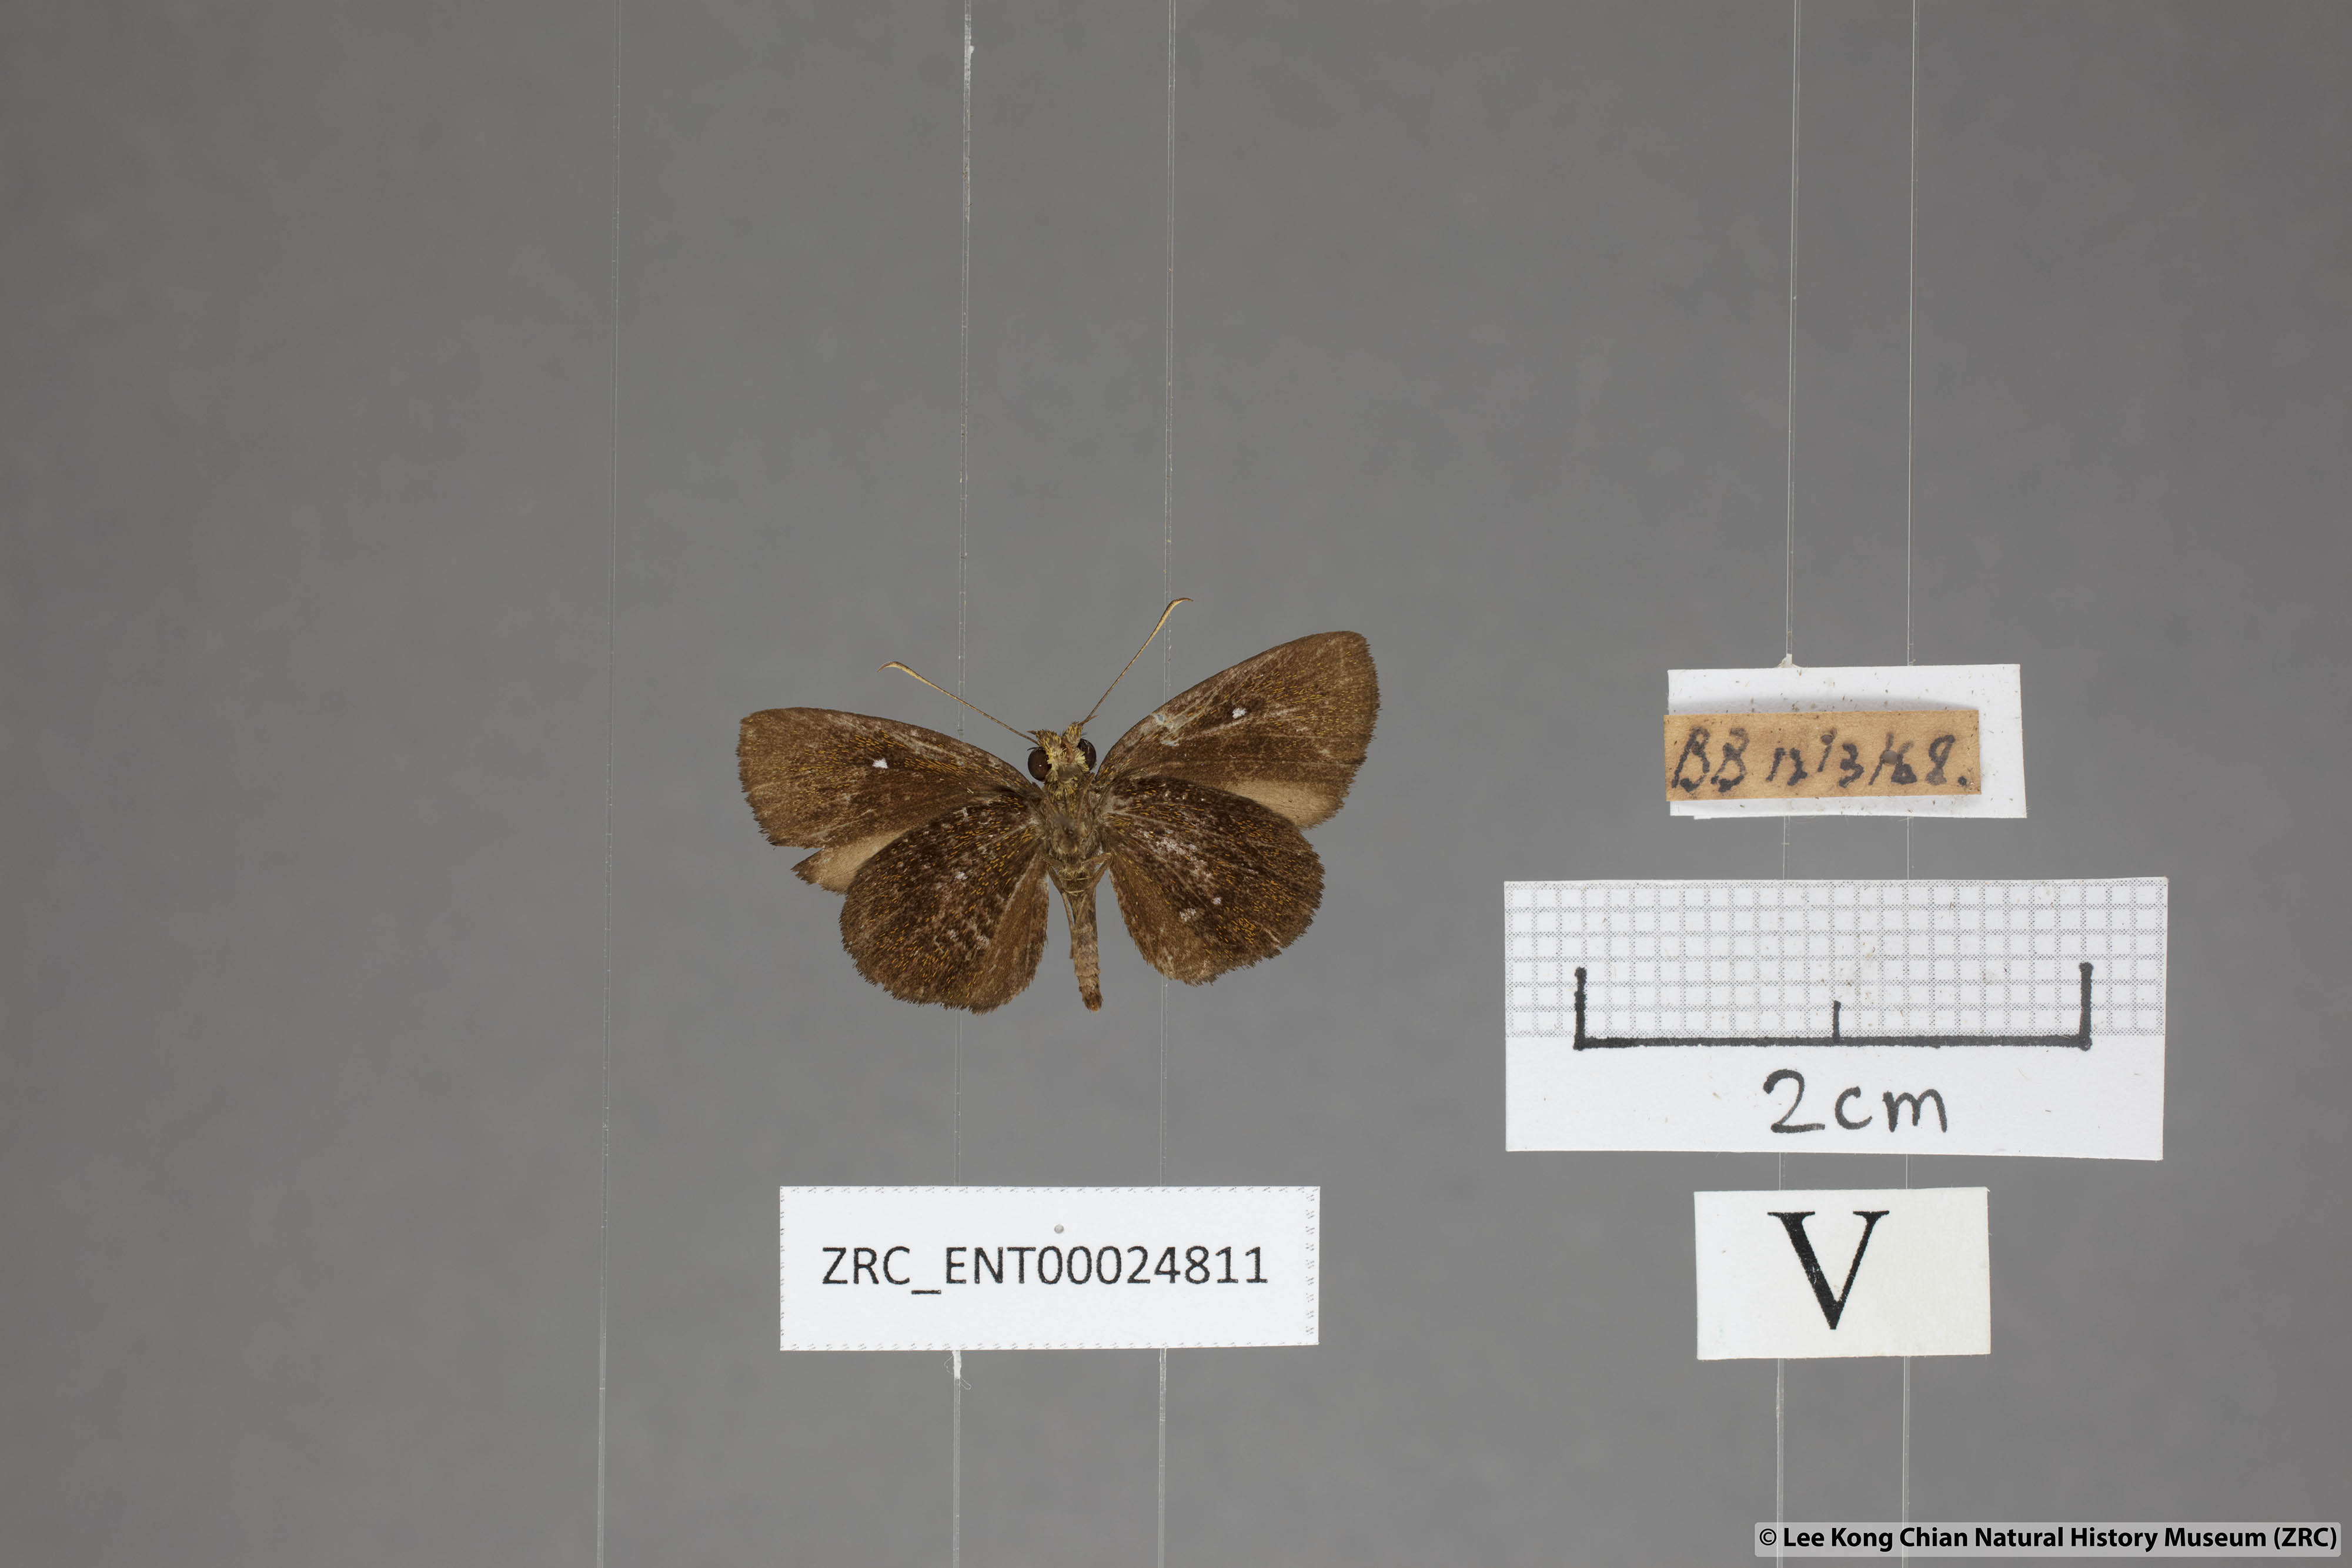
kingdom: Animalia
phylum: Arthropoda
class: Insecta
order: Lepidoptera
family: Hesperiidae
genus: Iambrix
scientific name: Iambrix salsala
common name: Chestnut bob
